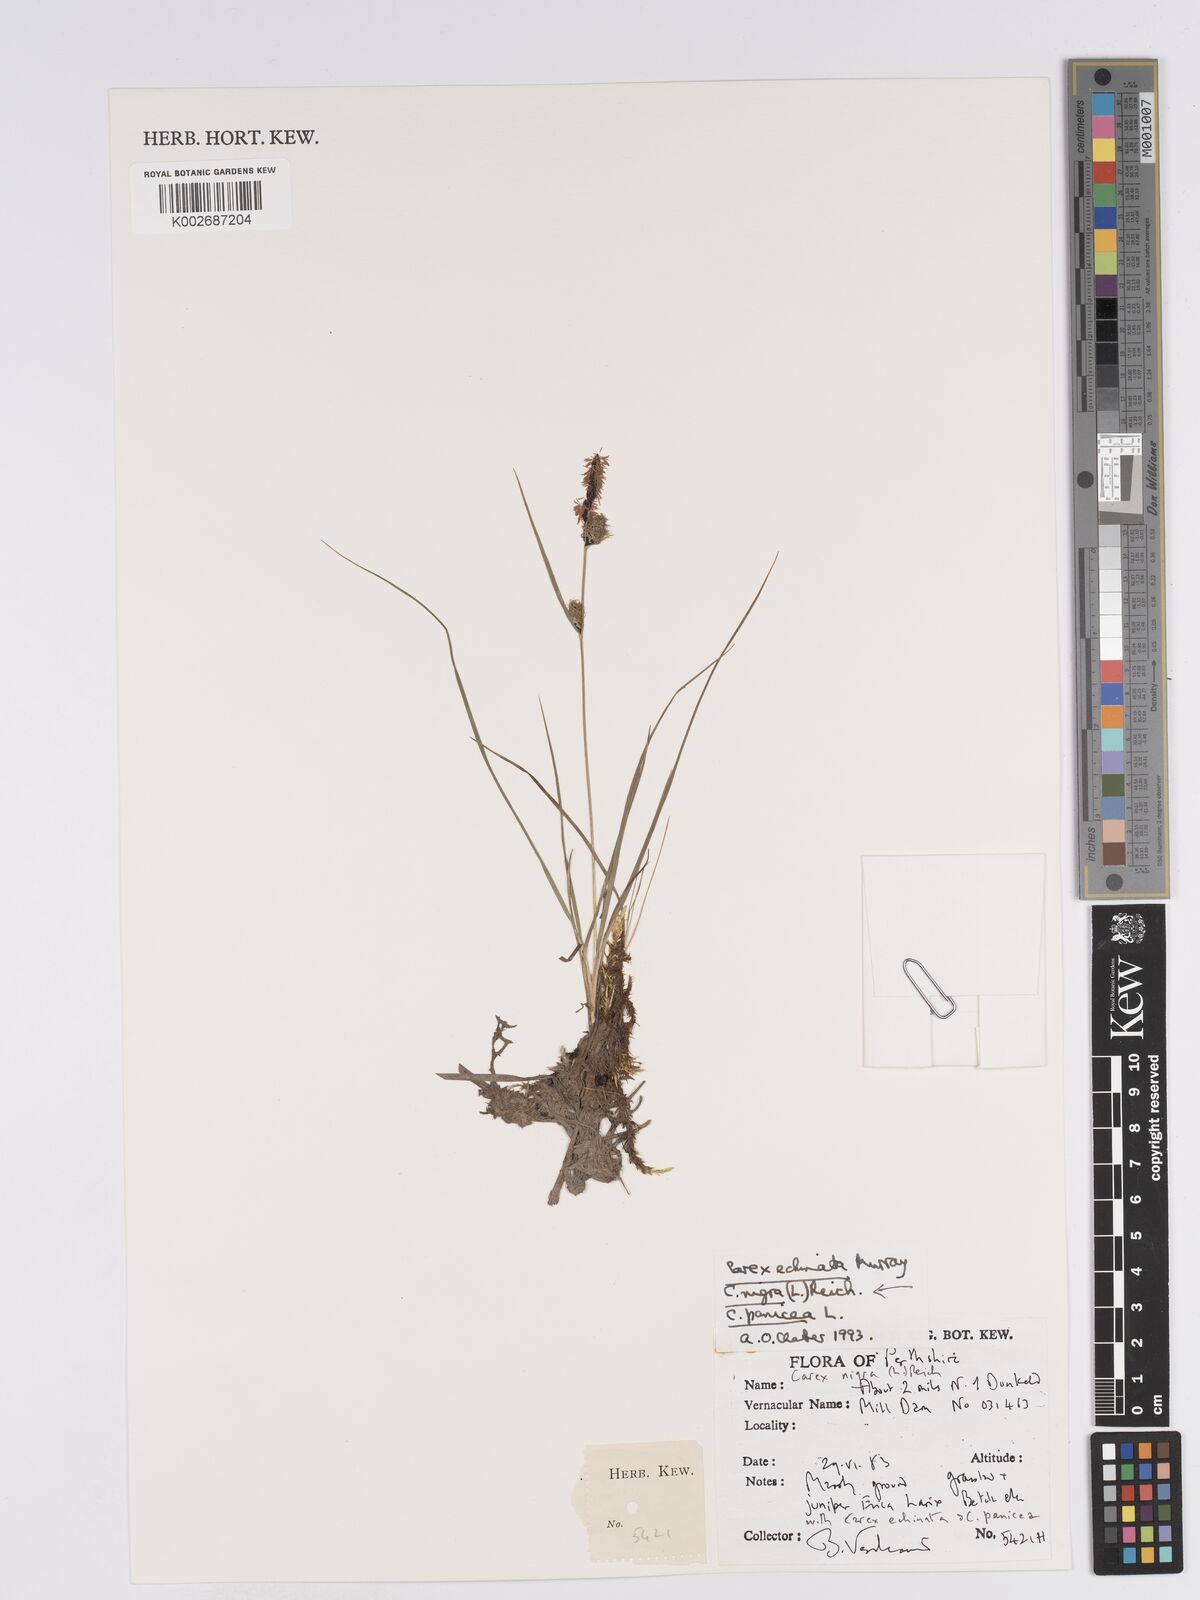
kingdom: Plantae
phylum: Tracheophyta
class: Liliopsida
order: Poales
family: Cyperaceae
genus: Carex
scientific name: Carex nigra
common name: Common sedge
